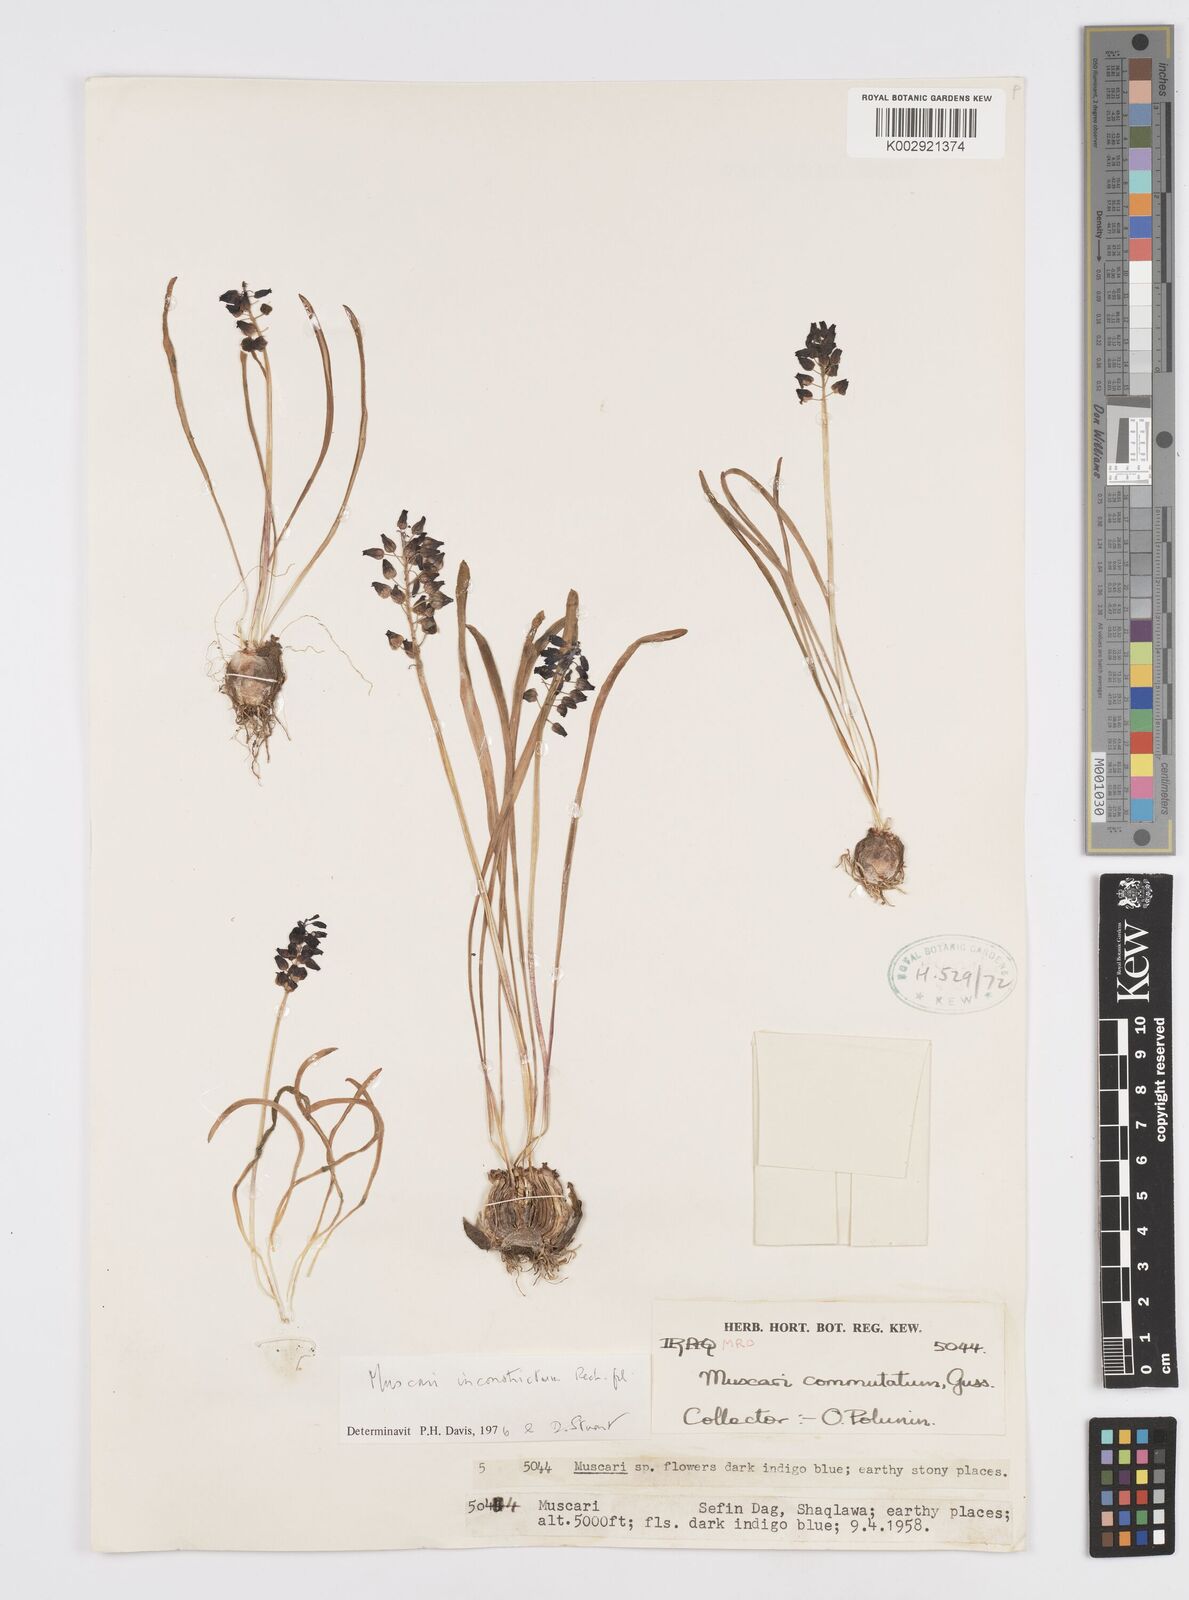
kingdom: Plantae
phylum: Tracheophyta
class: Liliopsida
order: Asparagales
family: Asparagaceae
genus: Muscari
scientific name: Muscari inconstrictum
